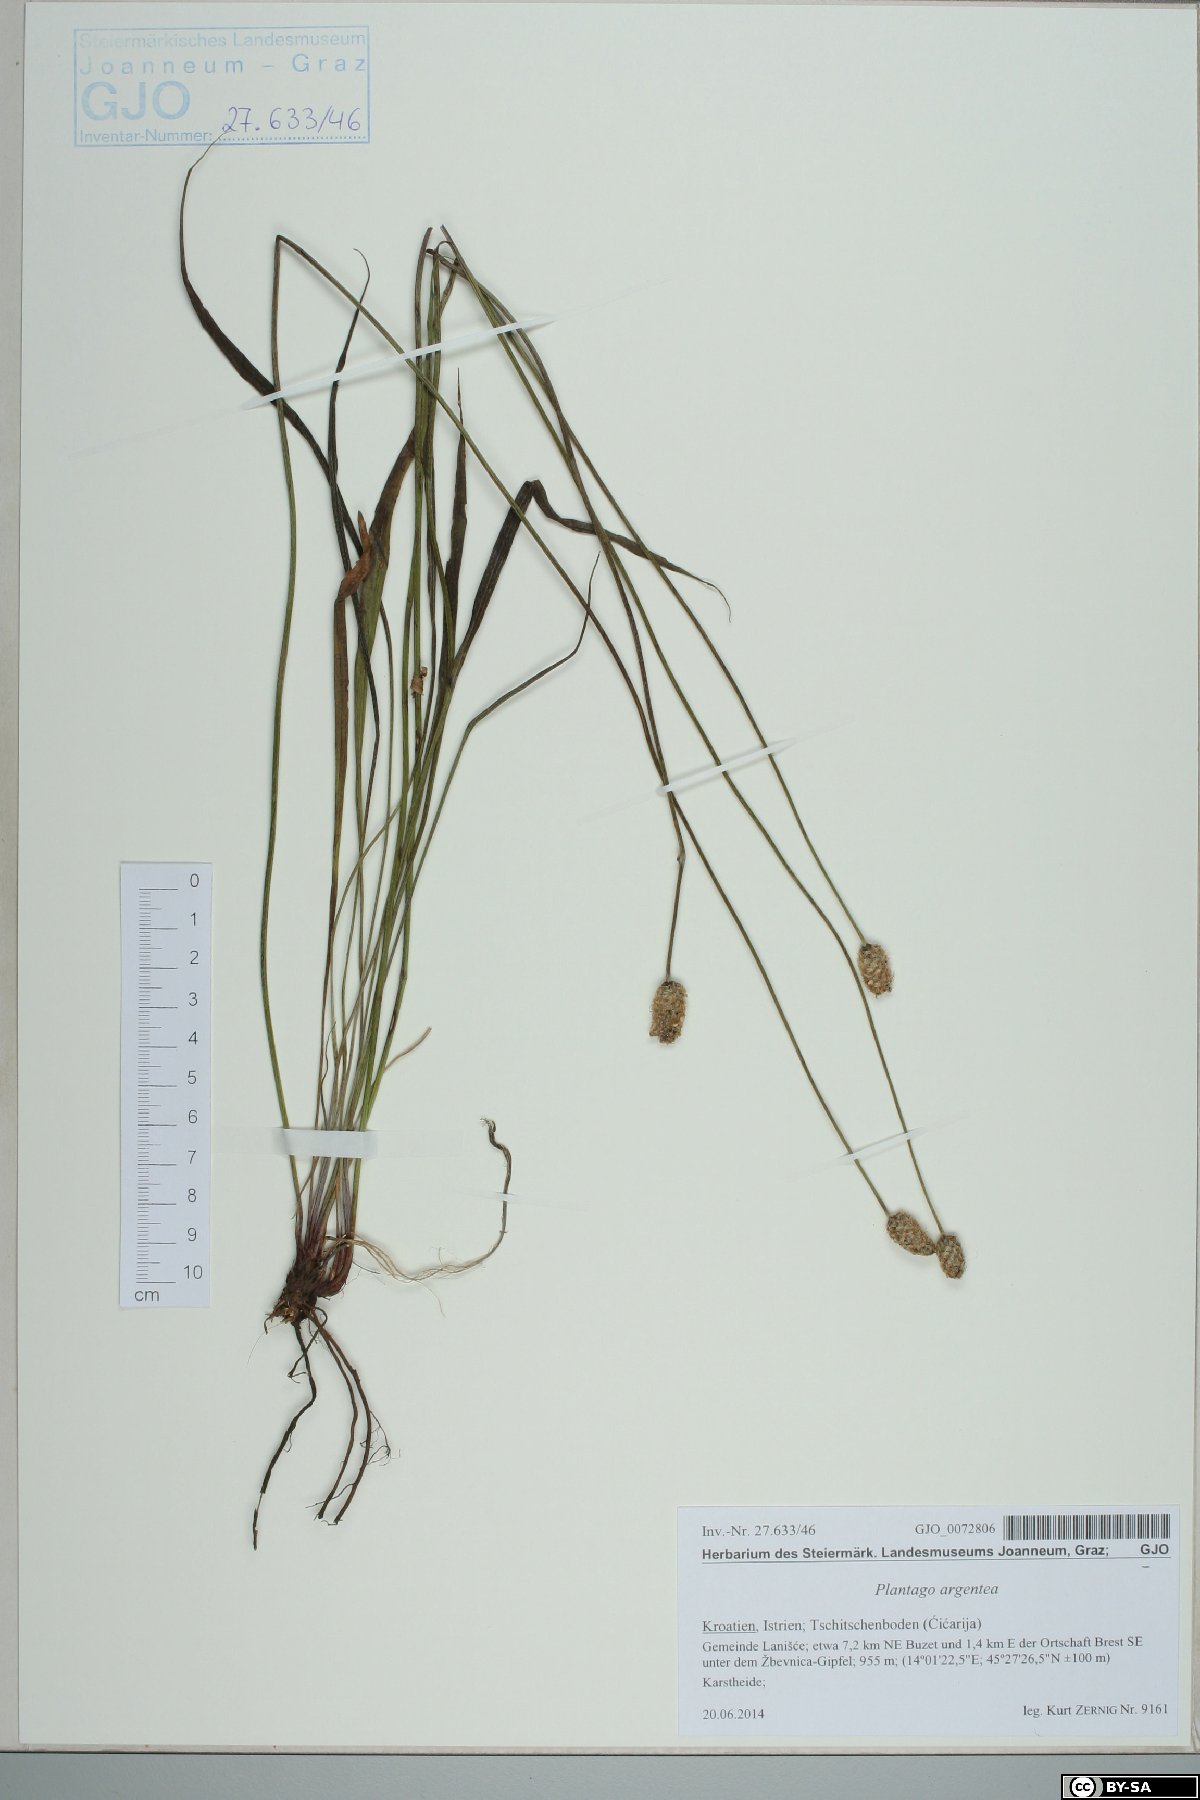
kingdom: Plantae
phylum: Tracheophyta
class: Magnoliopsida
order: Lamiales
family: Plantaginaceae
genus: Plantago
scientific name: Plantago argentea
